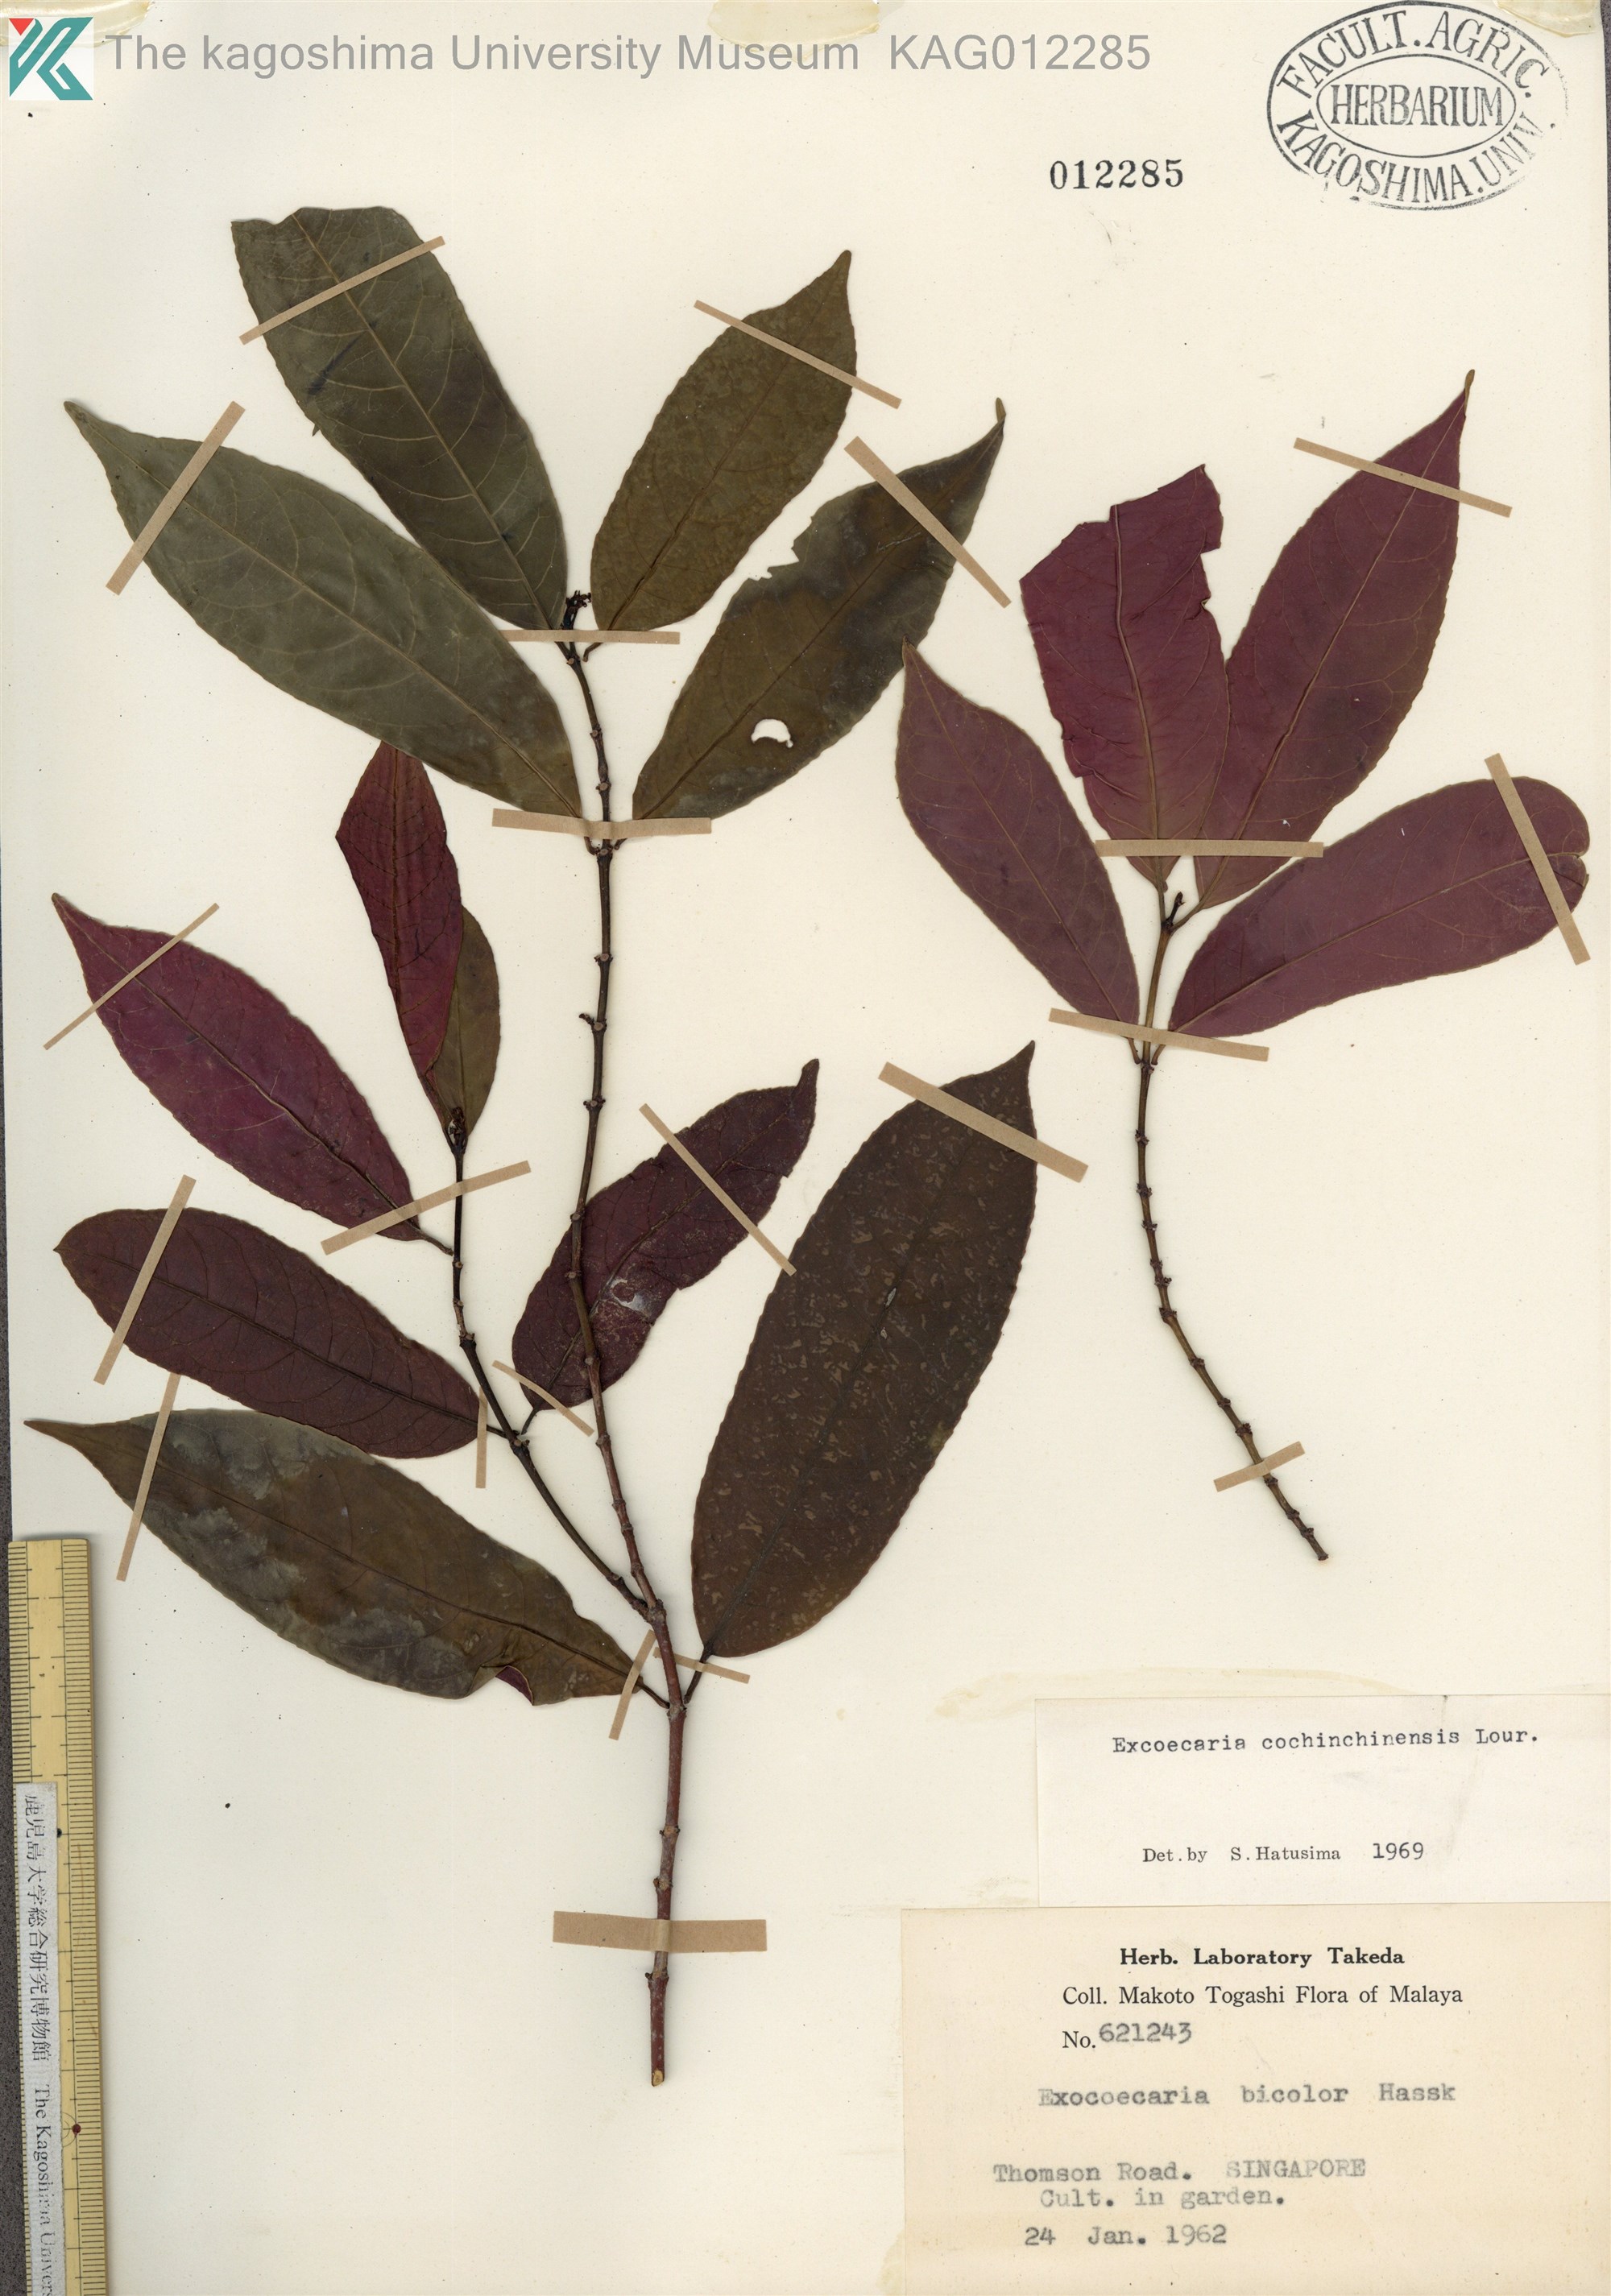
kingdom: Plantae
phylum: Tracheophyta
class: Magnoliopsida
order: Malpighiales
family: Euphorbiaceae
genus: Excoecaria
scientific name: Excoecaria cochinchinensis
